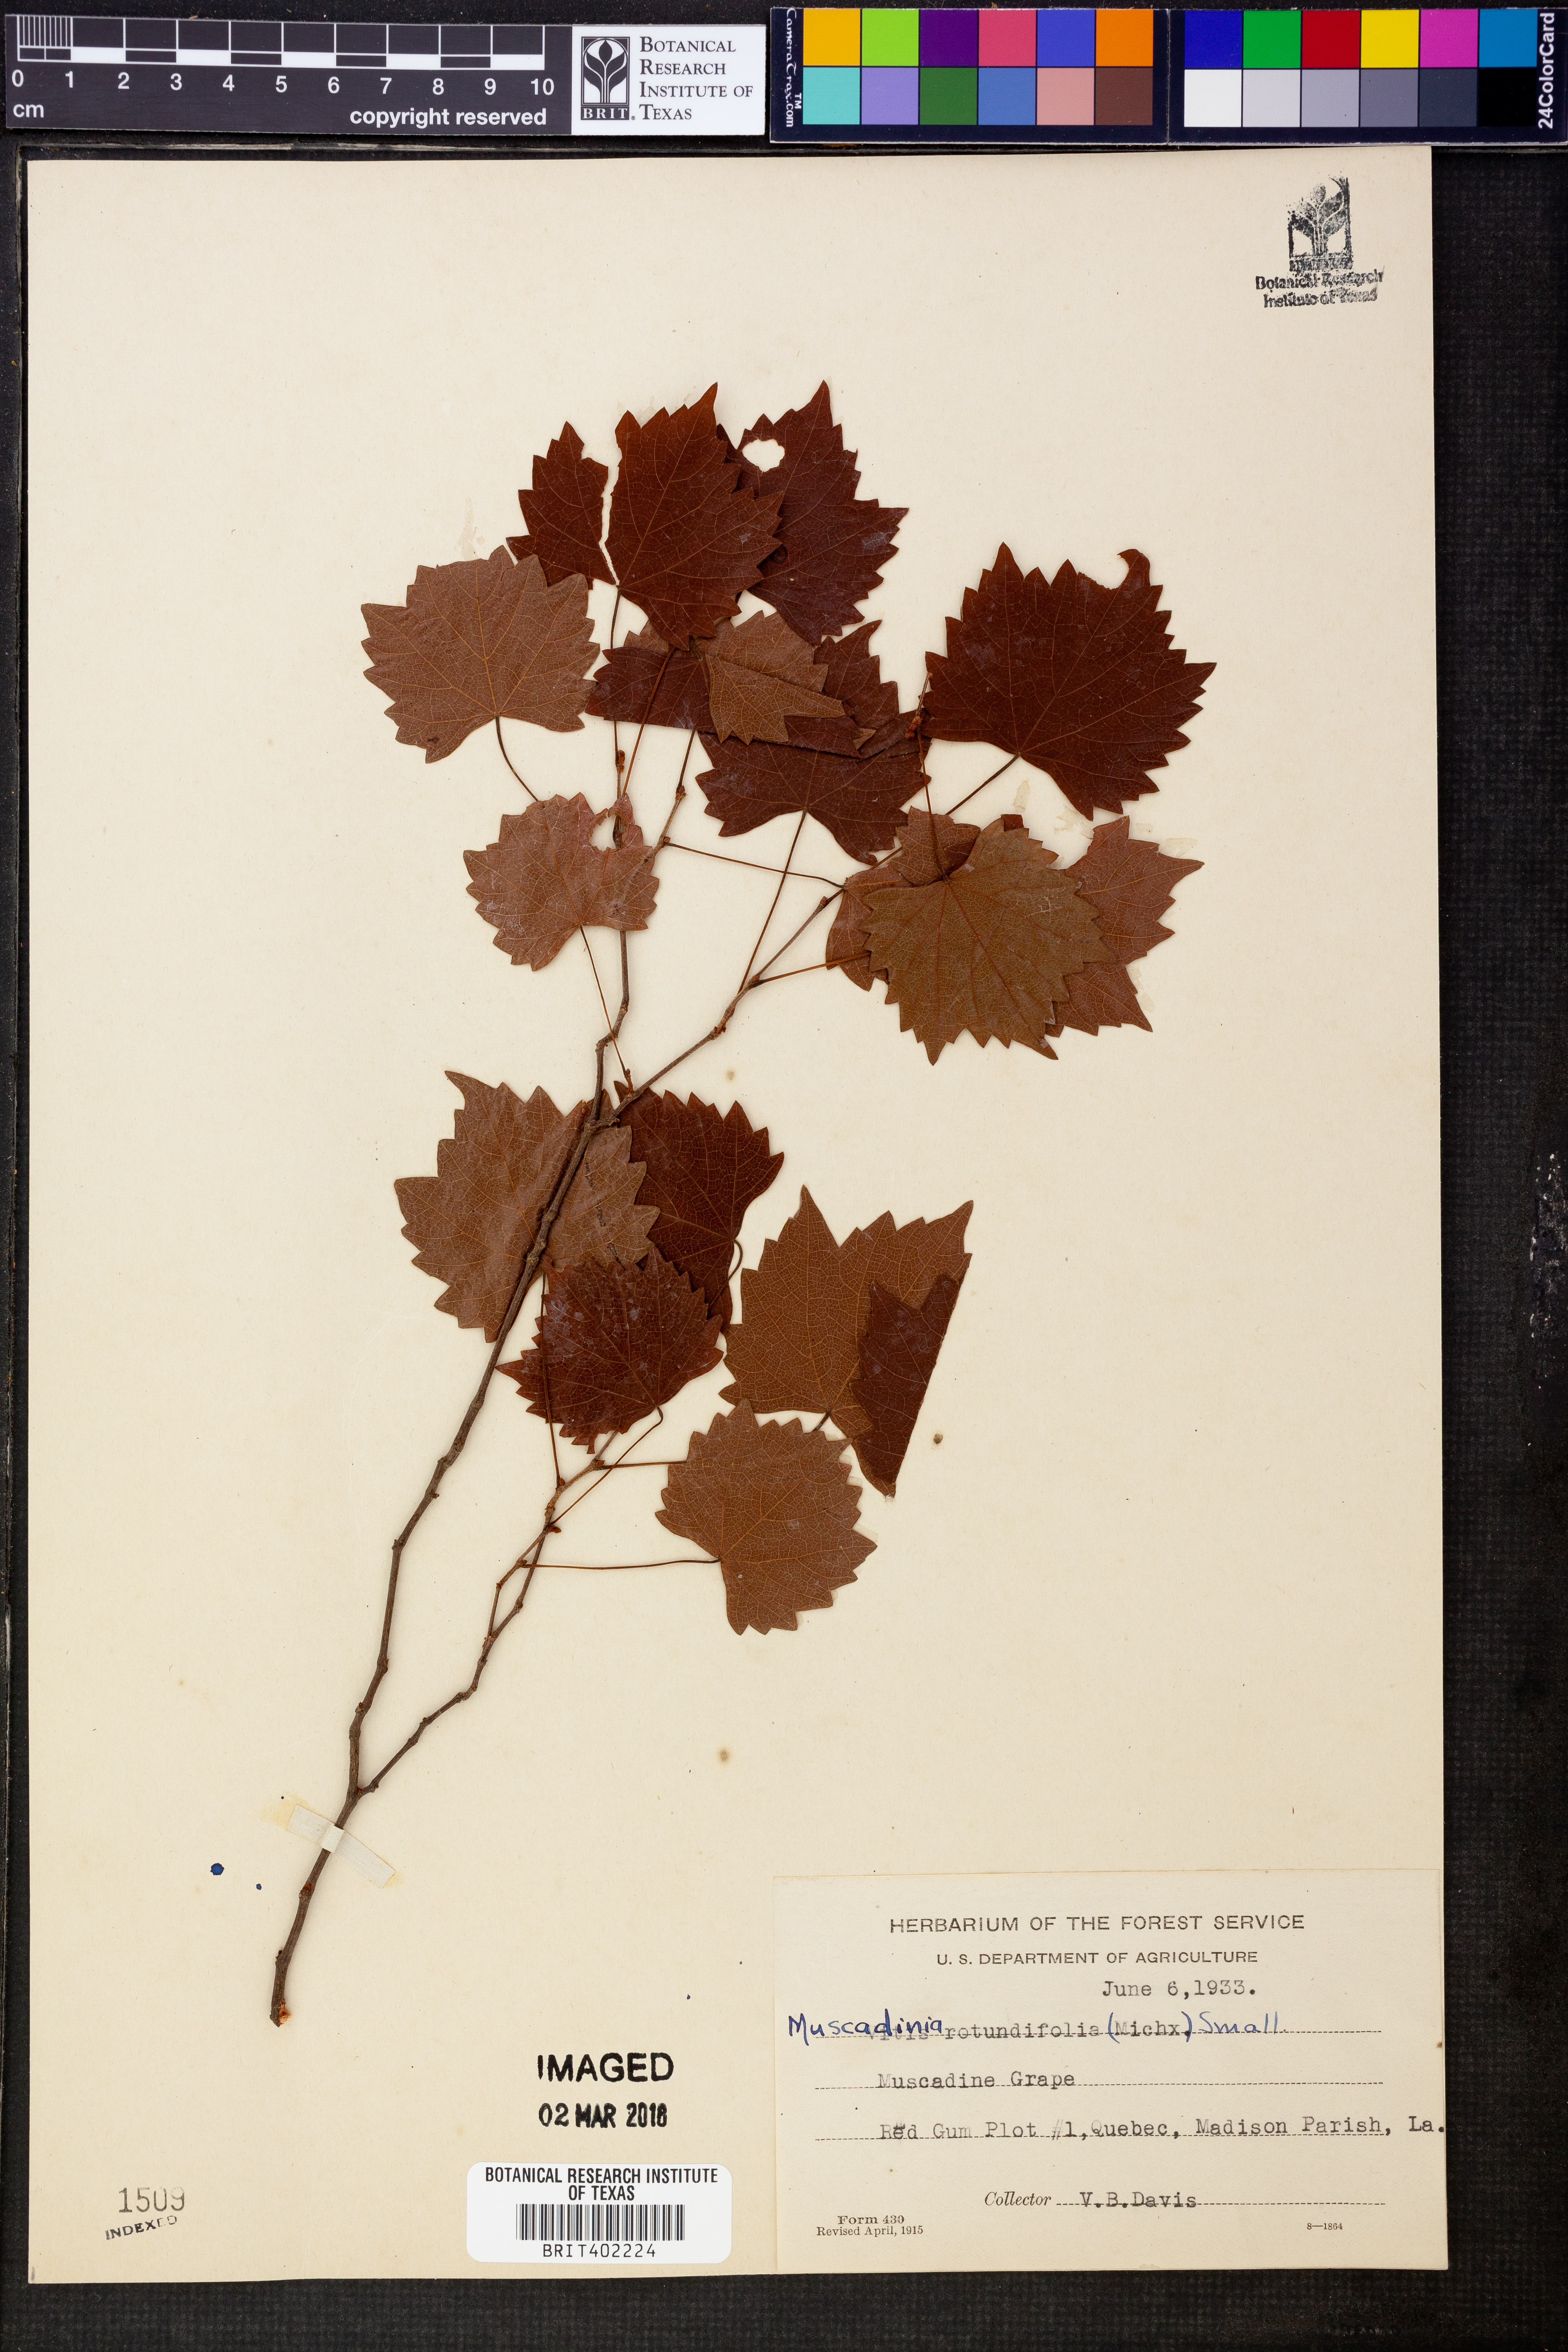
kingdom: Plantae
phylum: Tracheophyta
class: Magnoliopsida
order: Vitales
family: Vitaceae
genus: Vitis
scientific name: Vitis rotundifolia
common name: Muscadine grape
